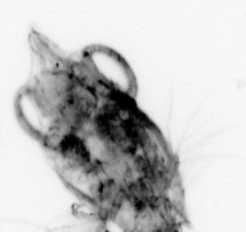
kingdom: Animalia
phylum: Arthropoda
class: Malacostraca
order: Decapoda
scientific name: Decapoda
